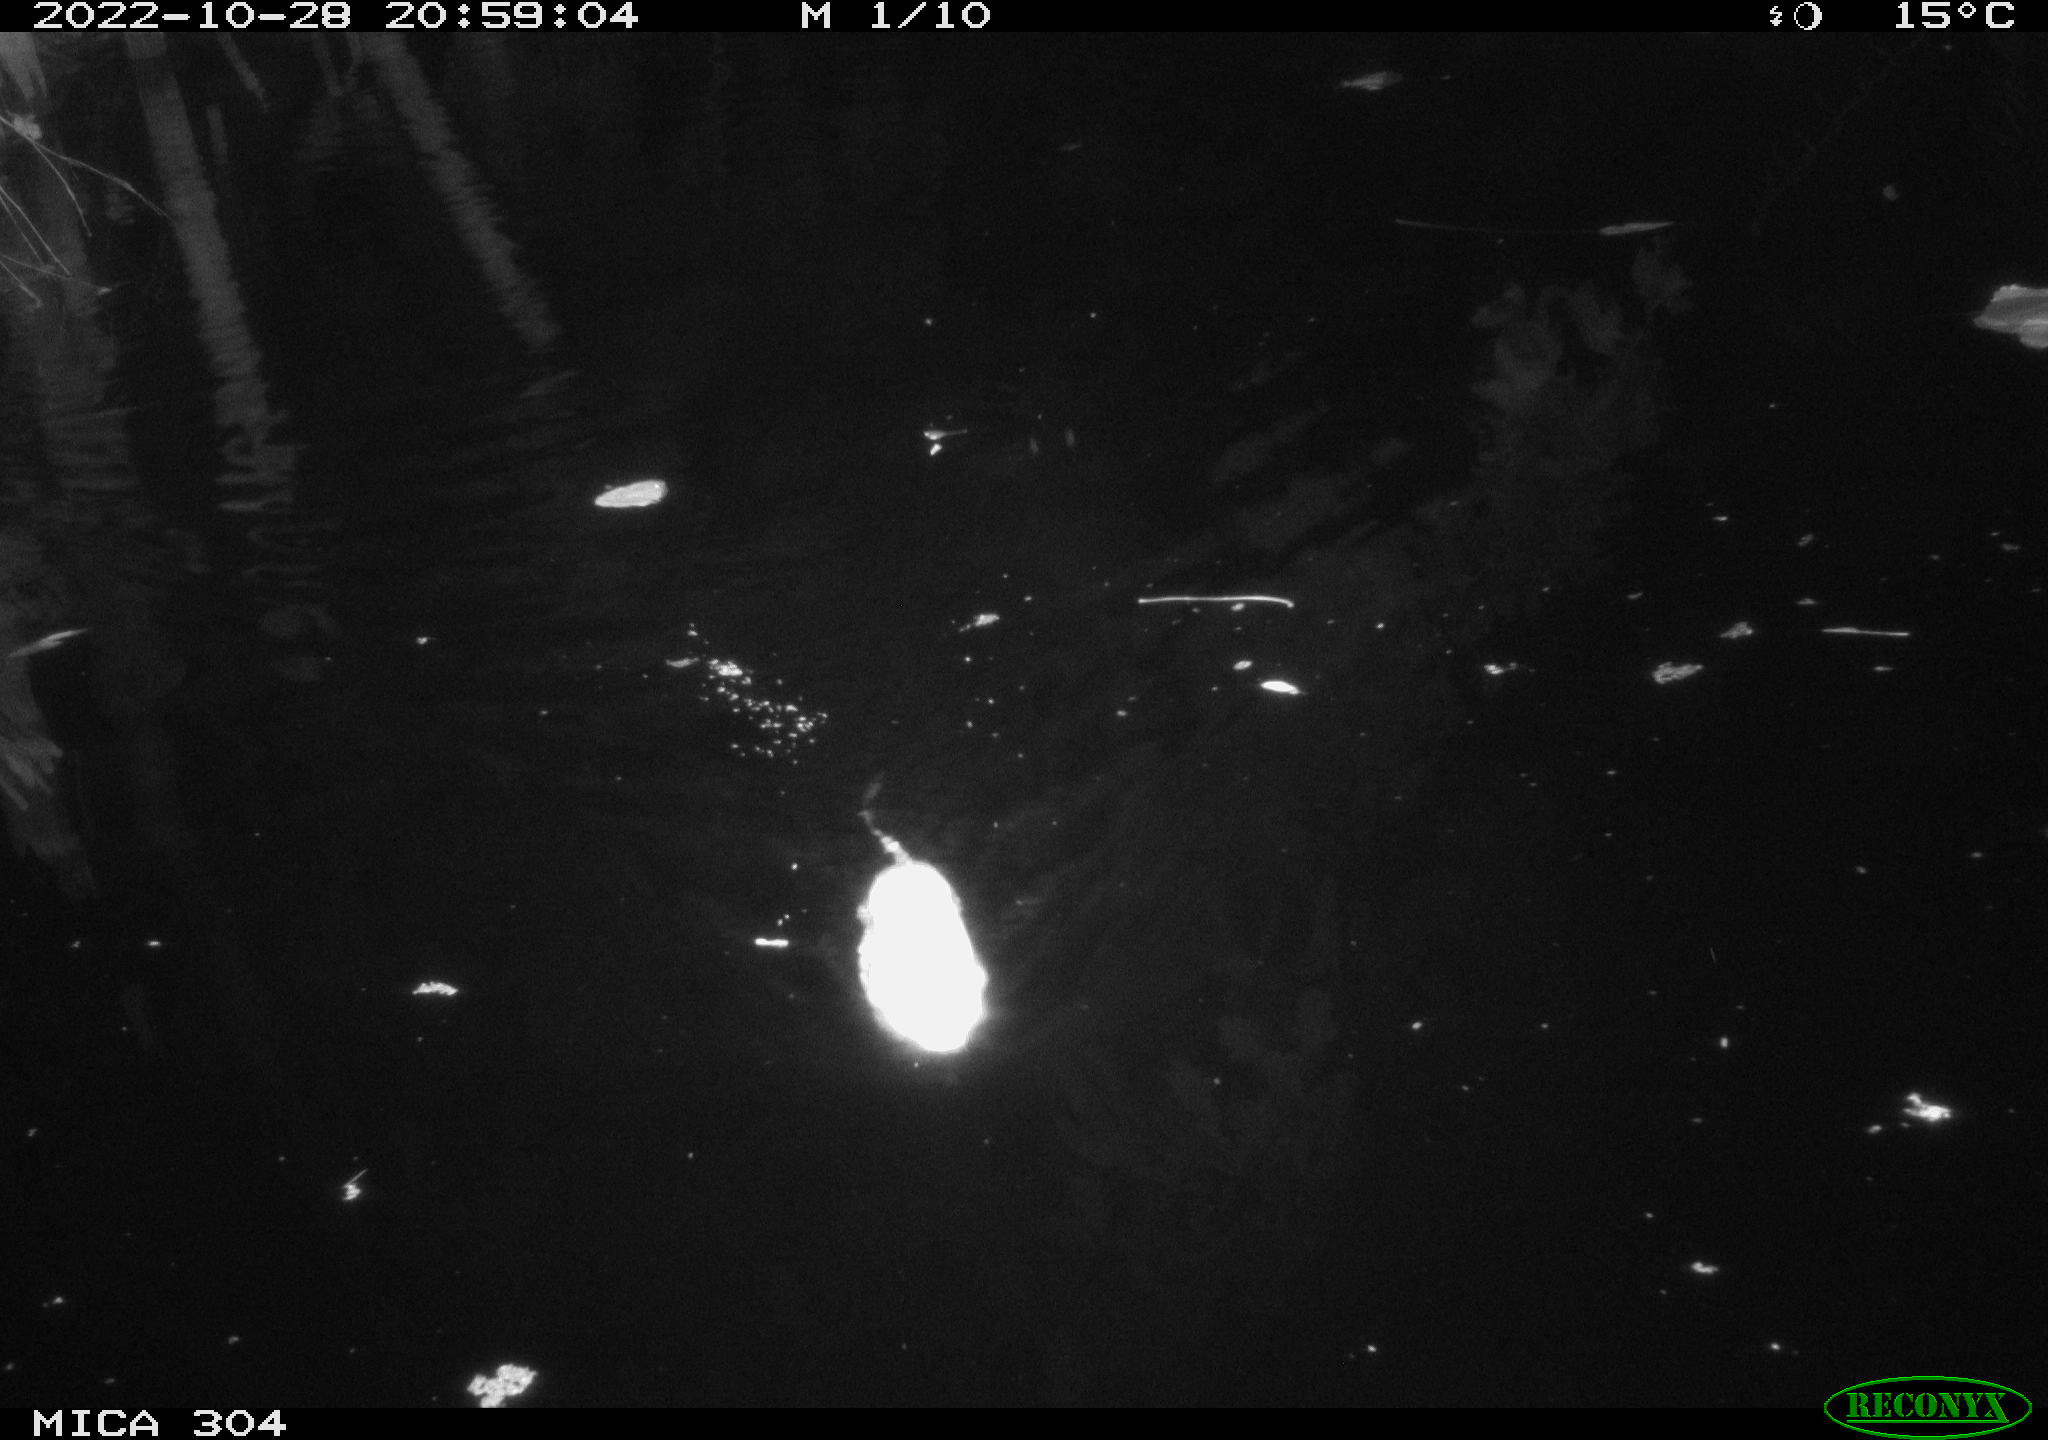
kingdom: Animalia
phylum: Chordata
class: Mammalia
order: Rodentia
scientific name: Rodentia
